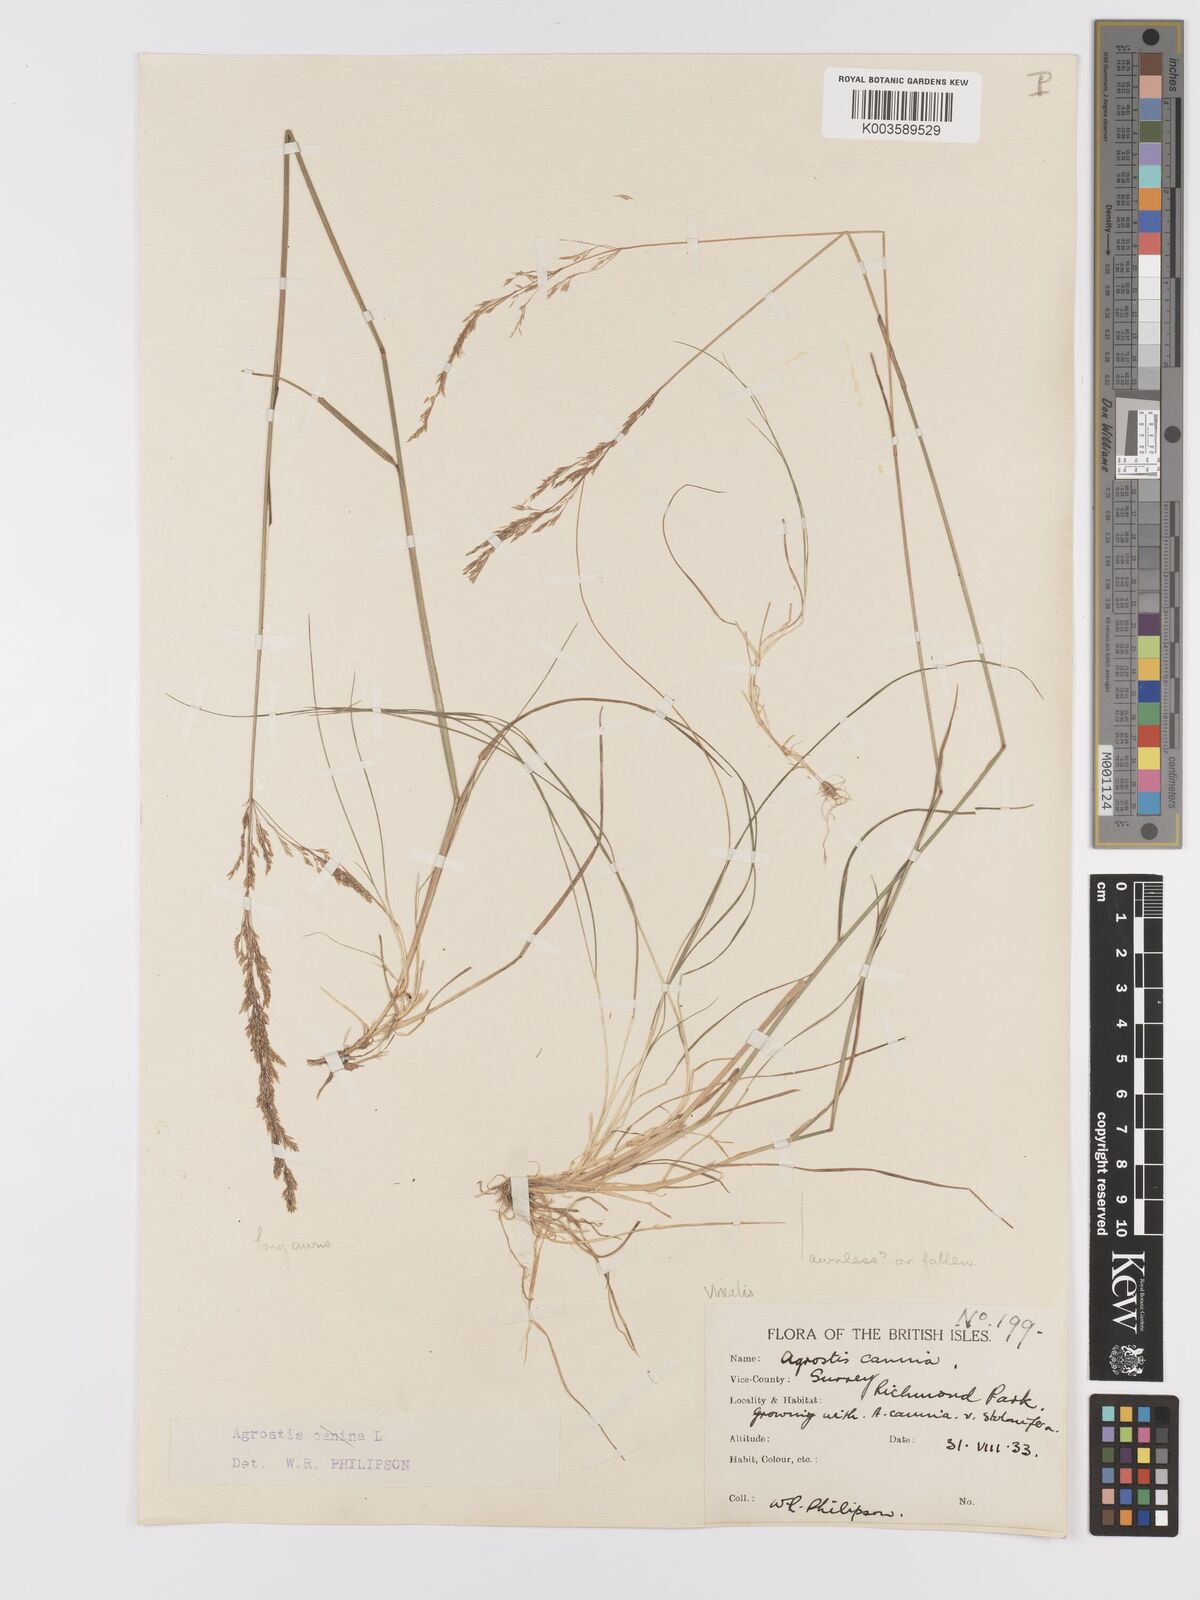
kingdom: Plantae
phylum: Tracheophyta
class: Liliopsida
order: Poales
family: Poaceae
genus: Agrostis
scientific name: Agrostis
